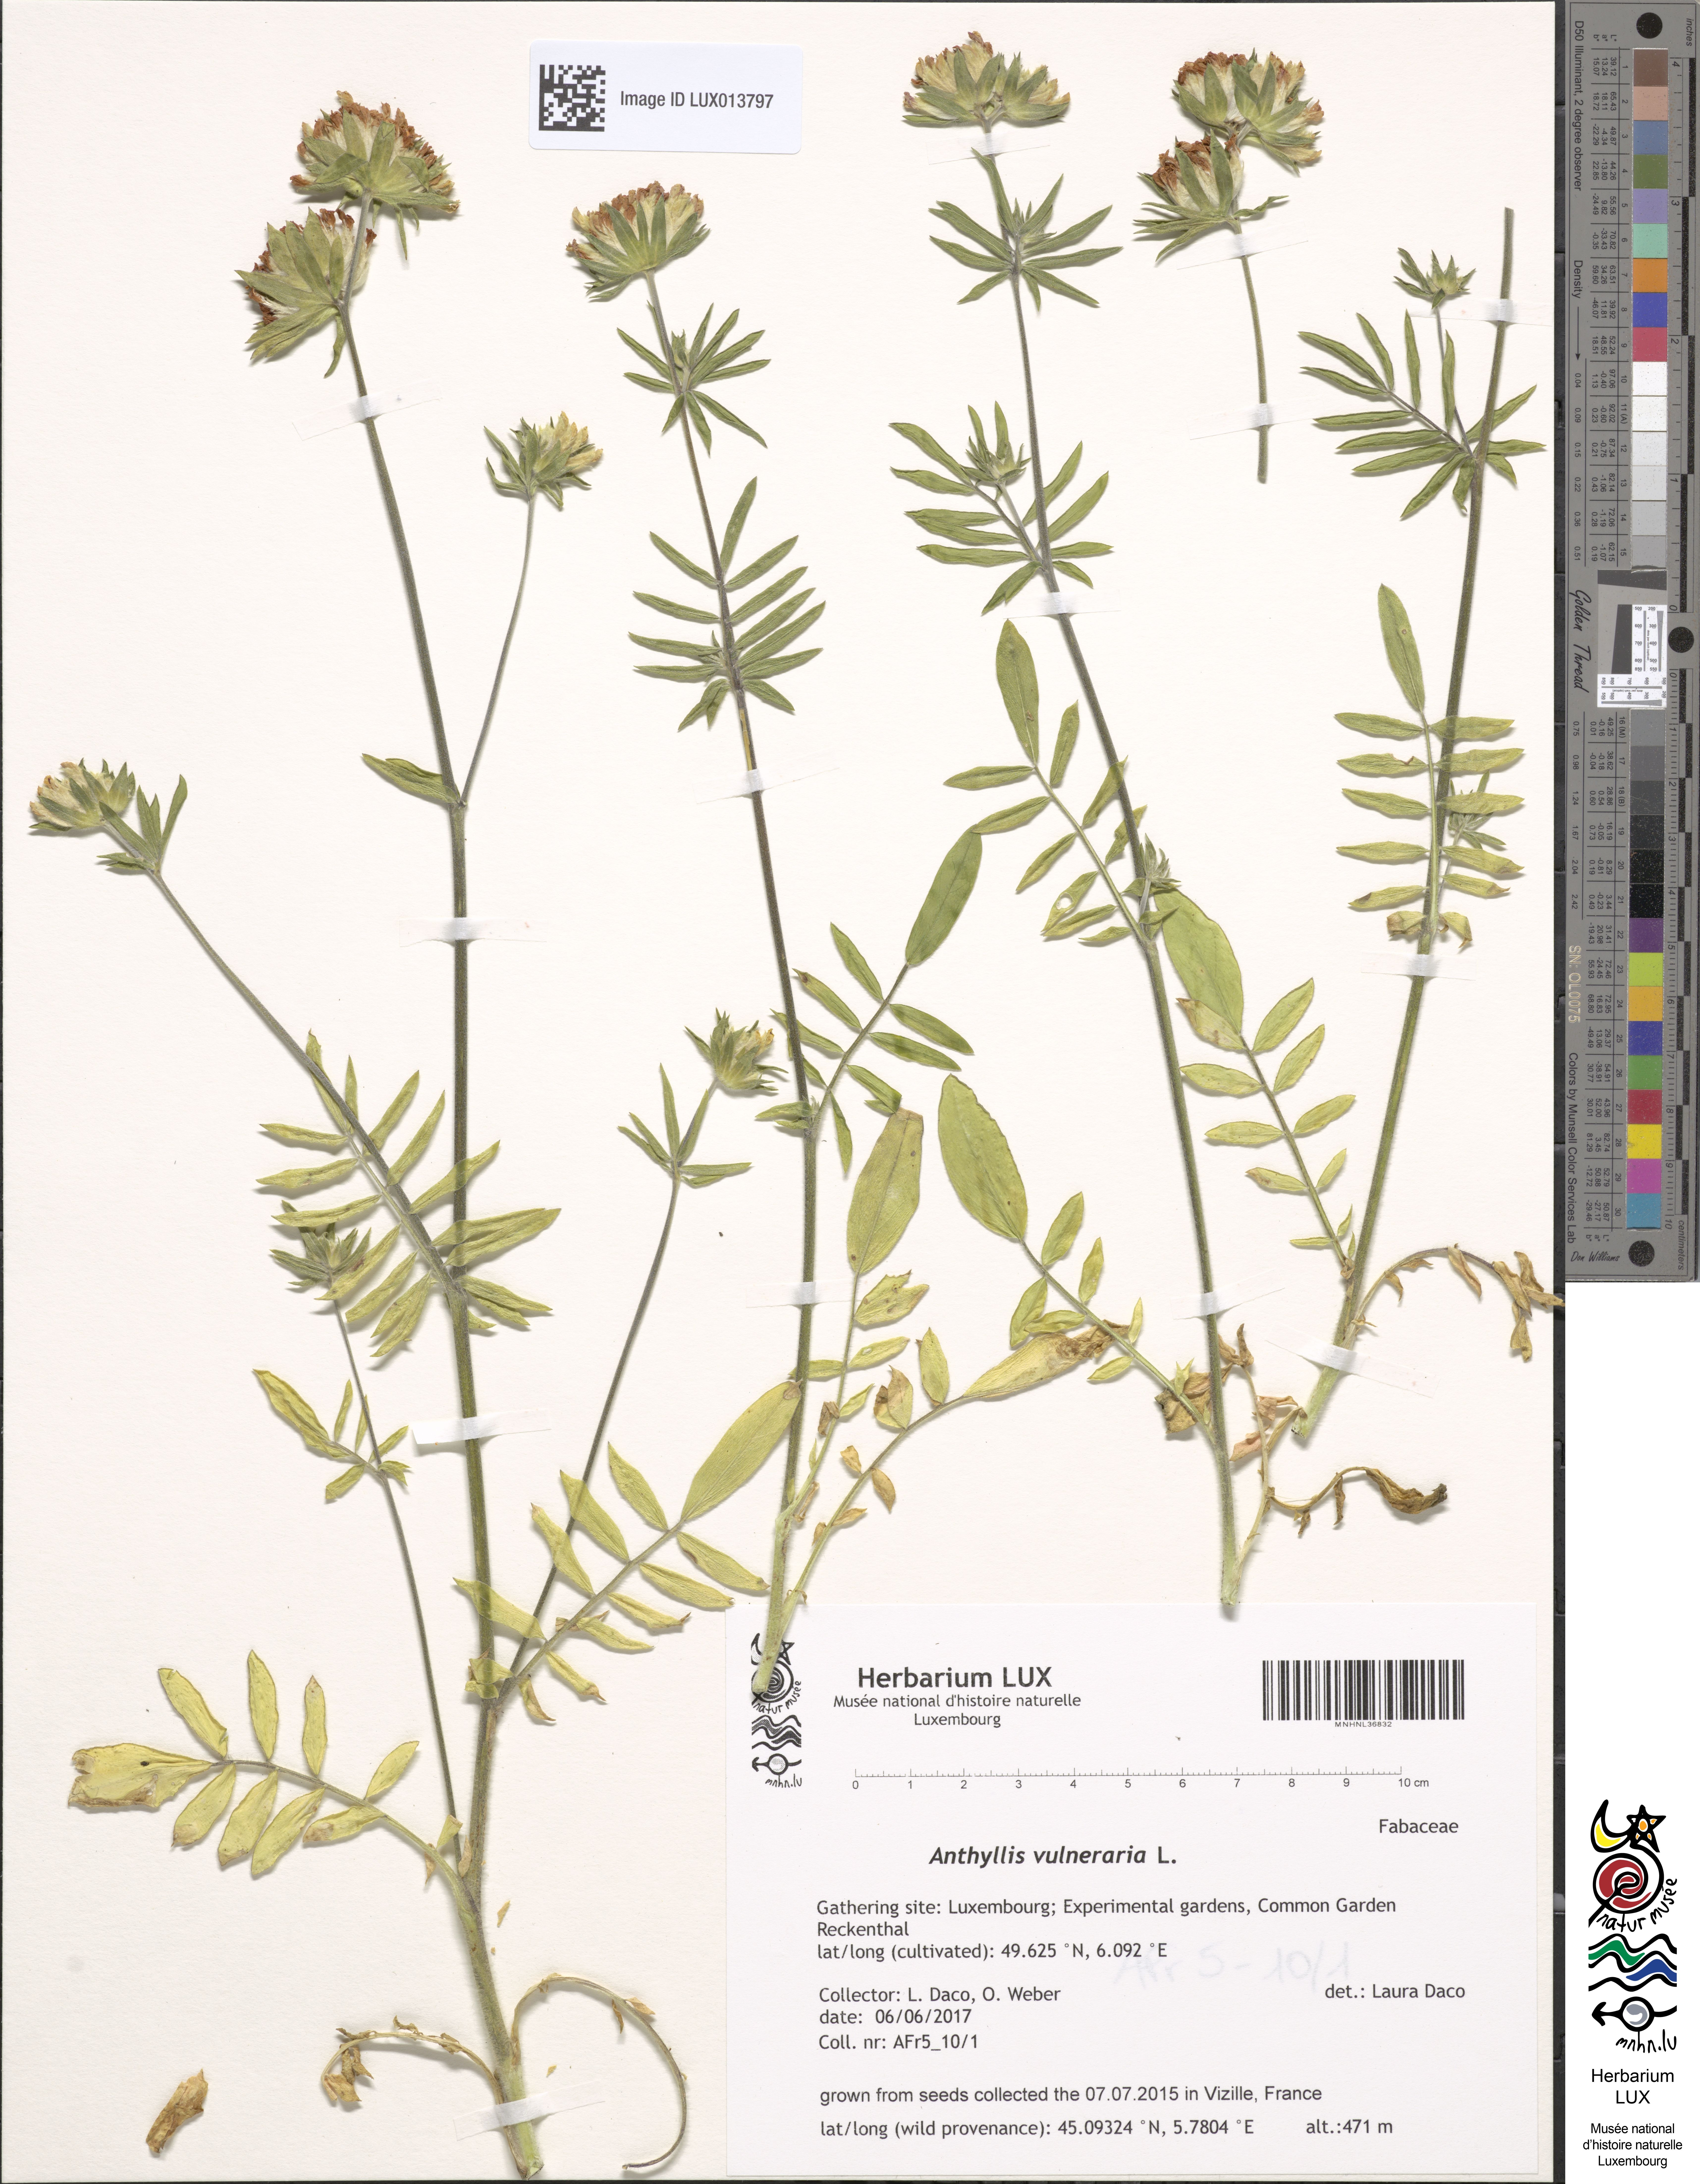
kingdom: Plantae
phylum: Tracheophyta
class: Magnoliopsida
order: Fabales
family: Fabaceae
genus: Anthyllis
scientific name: Anthyllis vulneraria
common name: Kidney vetch
